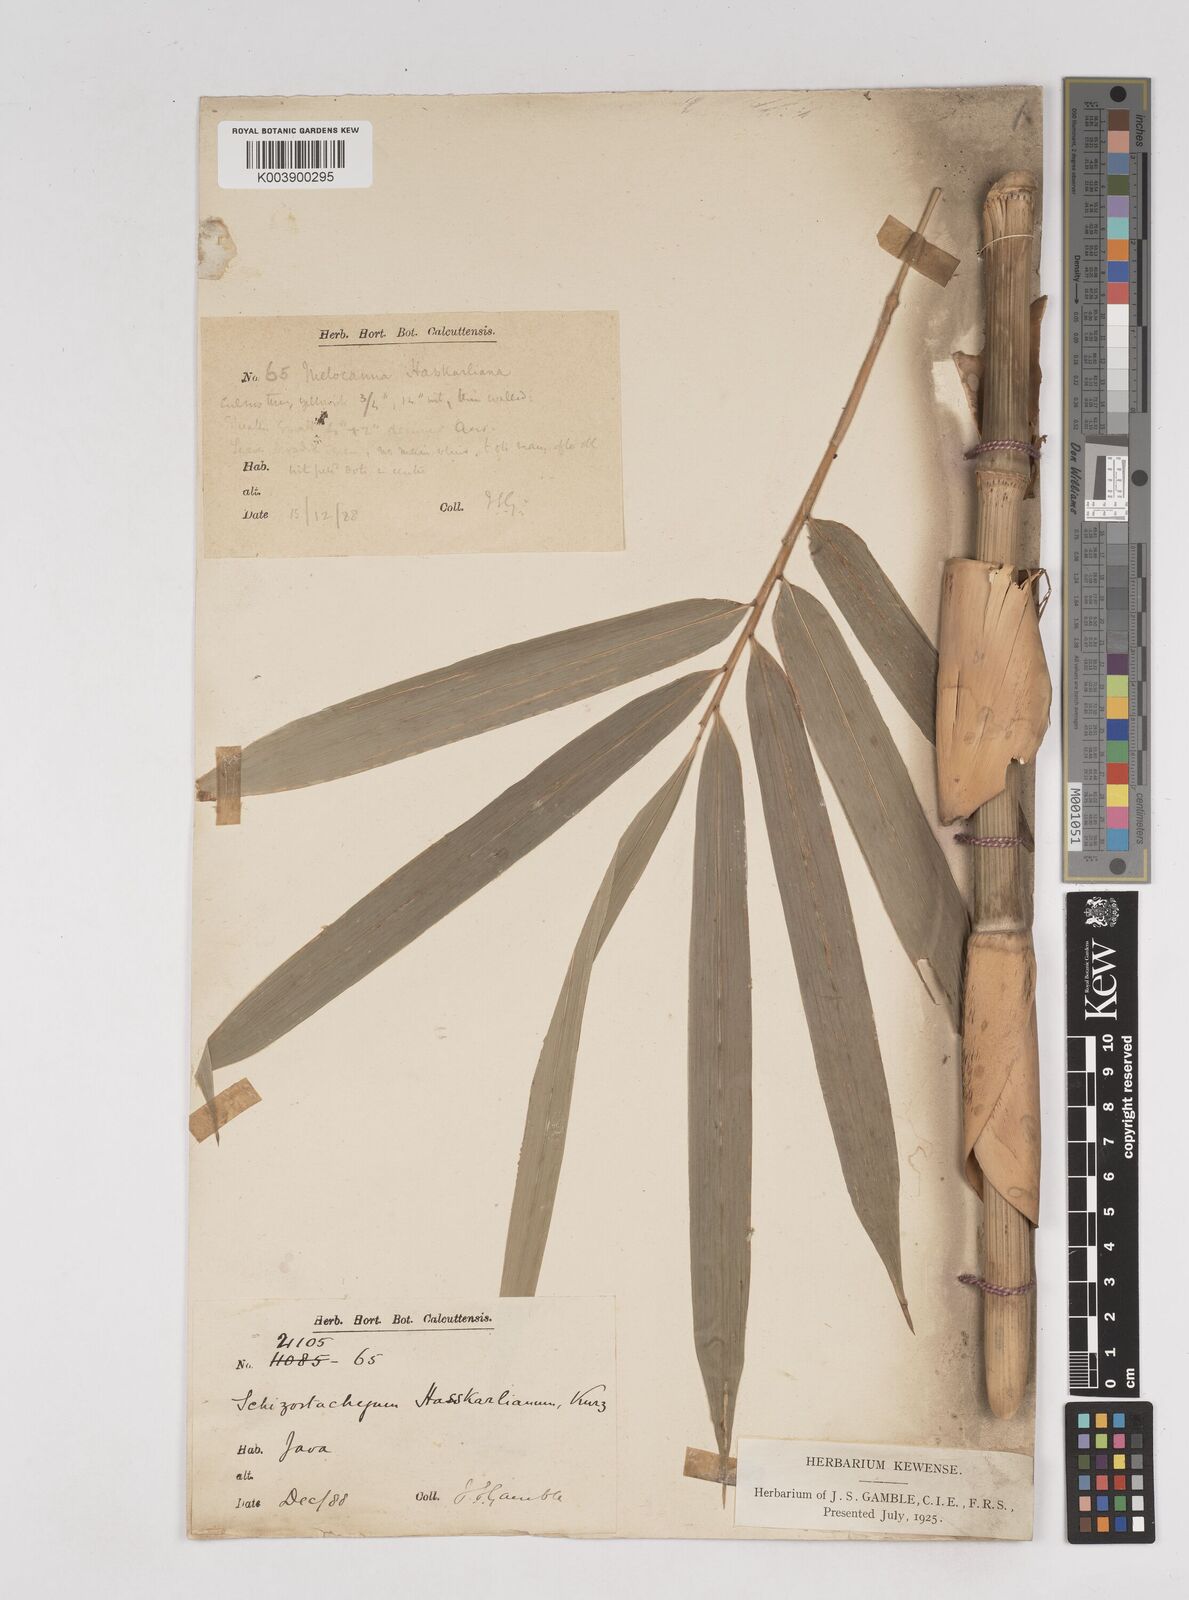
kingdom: Plantae
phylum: Tracheophyta
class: Liliopsida
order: Poales
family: Poaceae
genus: Gigantochloa
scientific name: Gigantochloa hasskarliana
